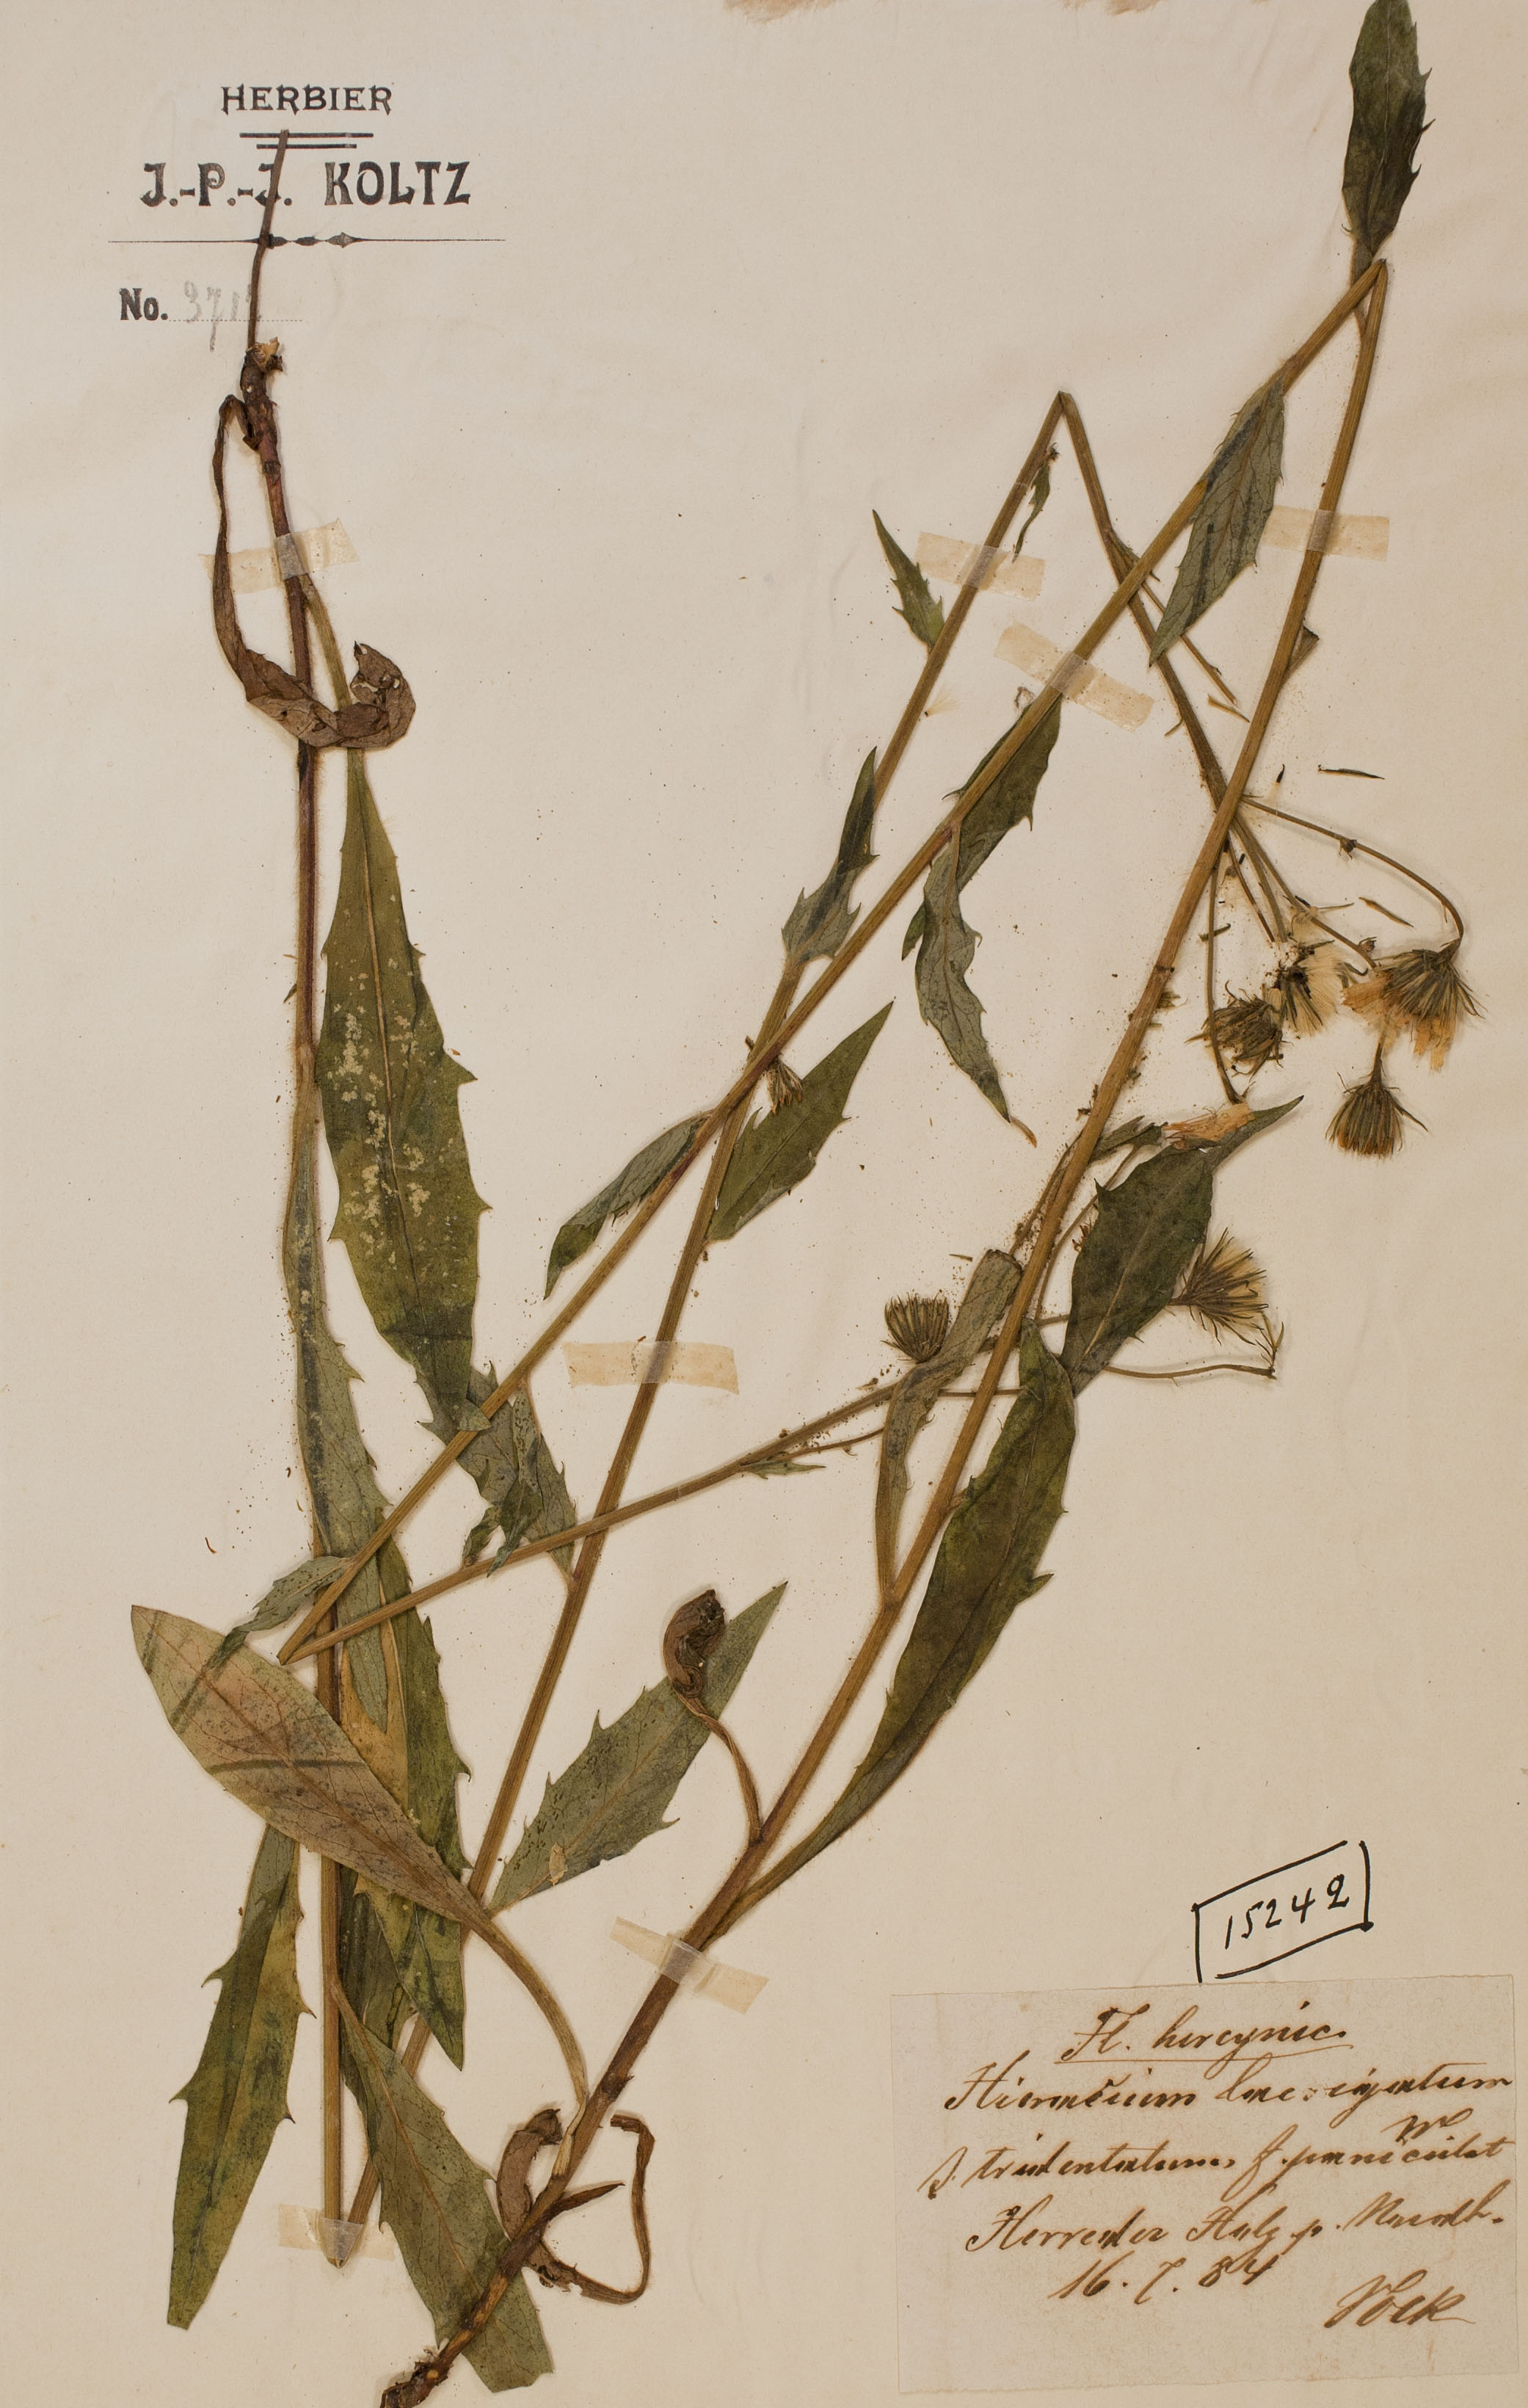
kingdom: Plantae
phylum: Tracheophyta
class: Magnoliopsida
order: Asterales
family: Asteraceae
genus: Hieracium
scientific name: Hieracium laevigatum
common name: Smooth hawkweed
